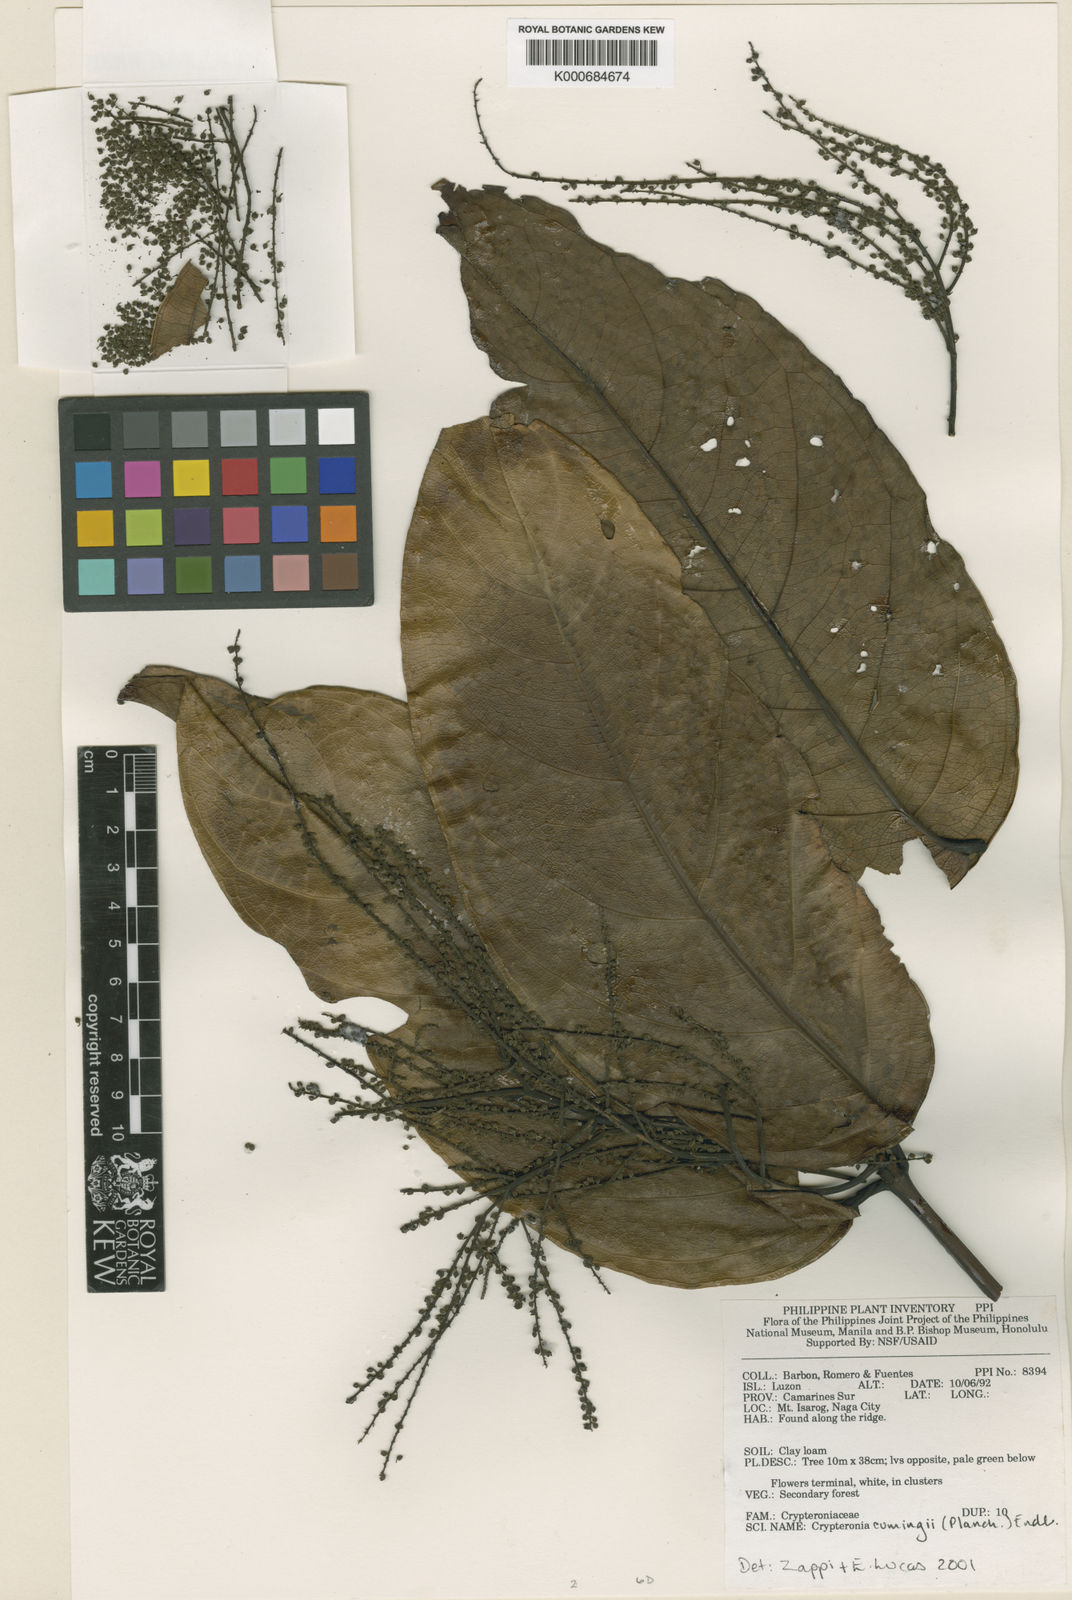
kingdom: Plantae
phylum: Tracheophyta
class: Magnoliopsida
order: Myrtales
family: Crypteroniaceae
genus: Crypteronia
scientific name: Crypteronia cumingii
